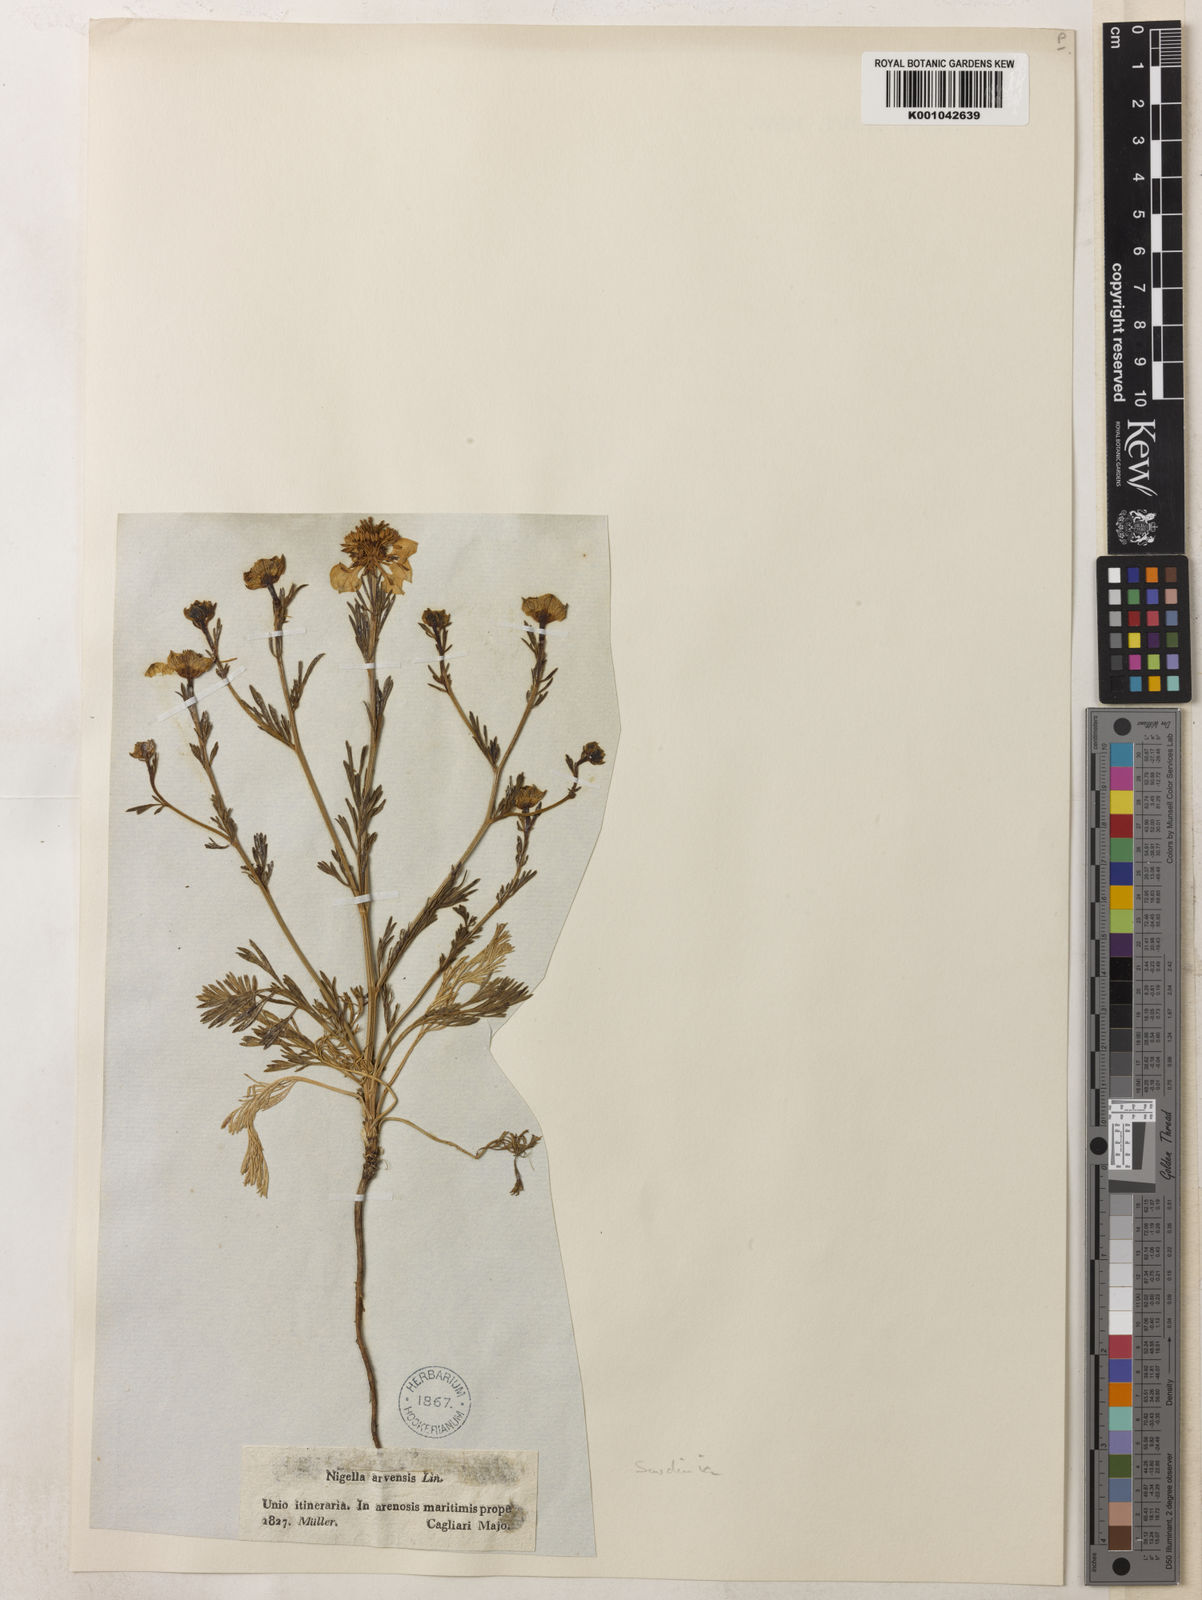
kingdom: Plantae
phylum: Tracheophyta
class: Magnoliopsida
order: Ranunculales
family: Ranunculaceae
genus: Nigella
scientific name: Nigella arvensis
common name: Wild fennel-flower
